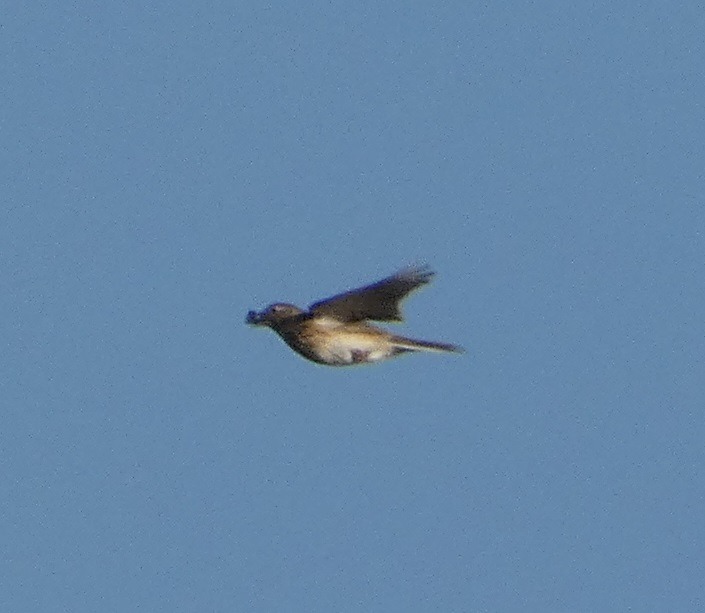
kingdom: Animalia
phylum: Chordata
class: Aves
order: Passeriformes
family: Alaudidae
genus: Alauda
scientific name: Alauda arvensis
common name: Sanglærke
